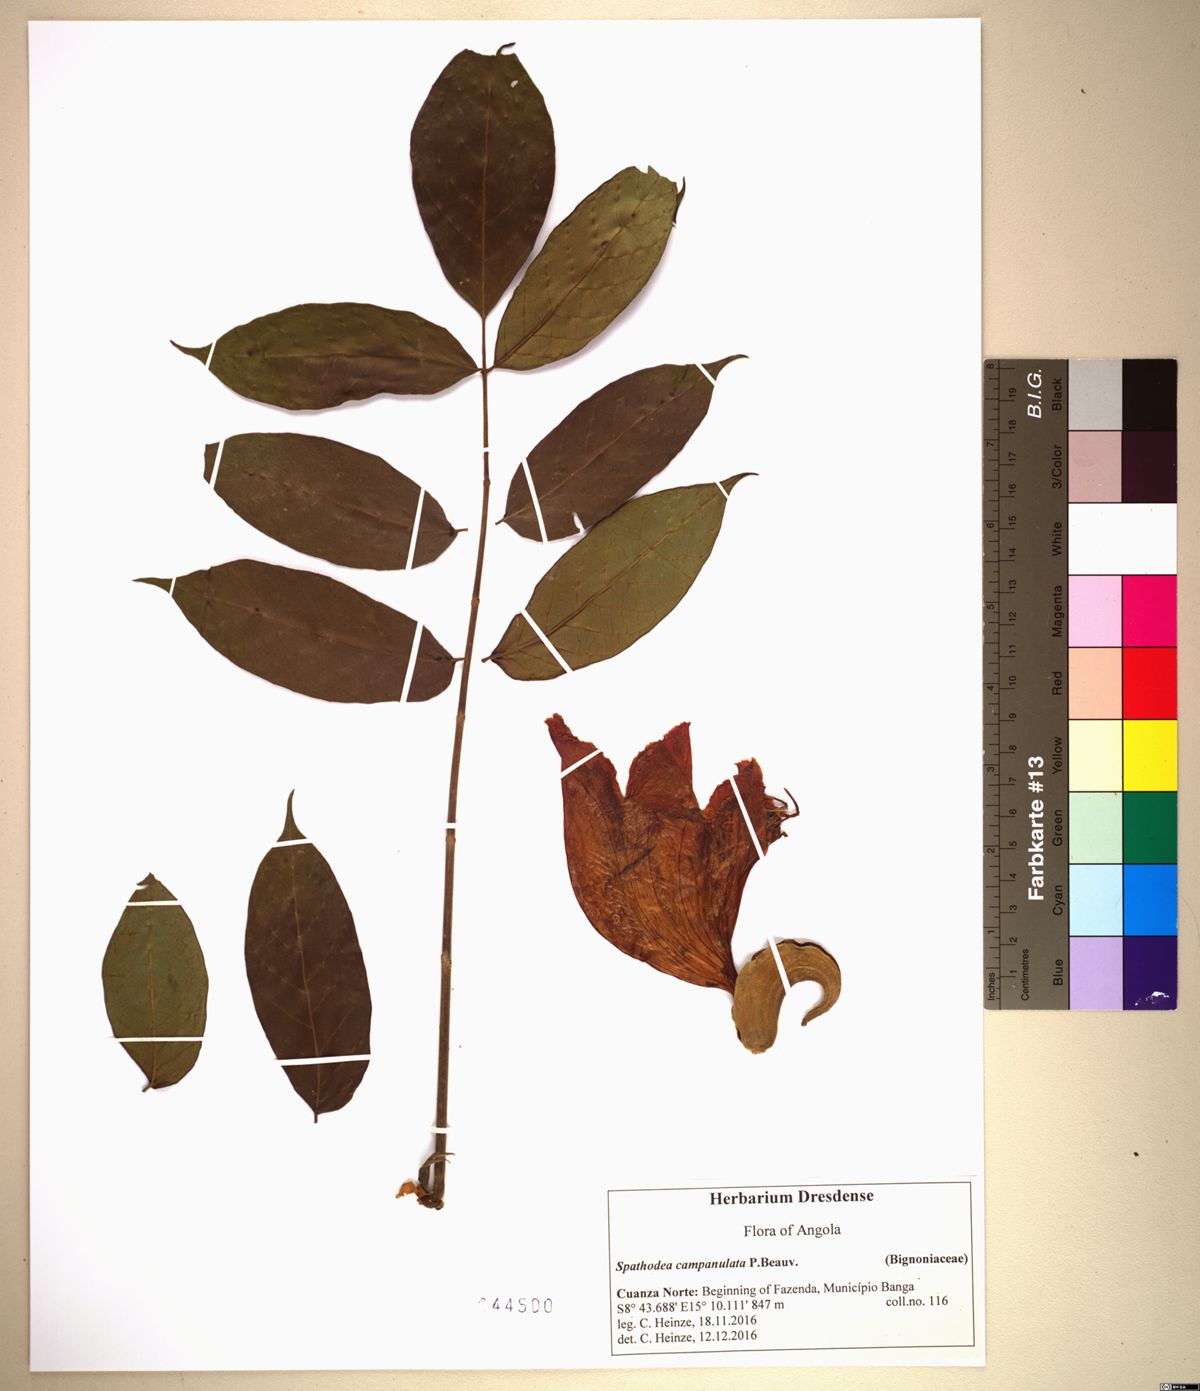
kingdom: Plantae
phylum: Tracheophyta
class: Magnoliopsida
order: Lamiales
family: Bignoniaceae
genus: Spathodea
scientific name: Spathodea campanulata
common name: African tuliptree
